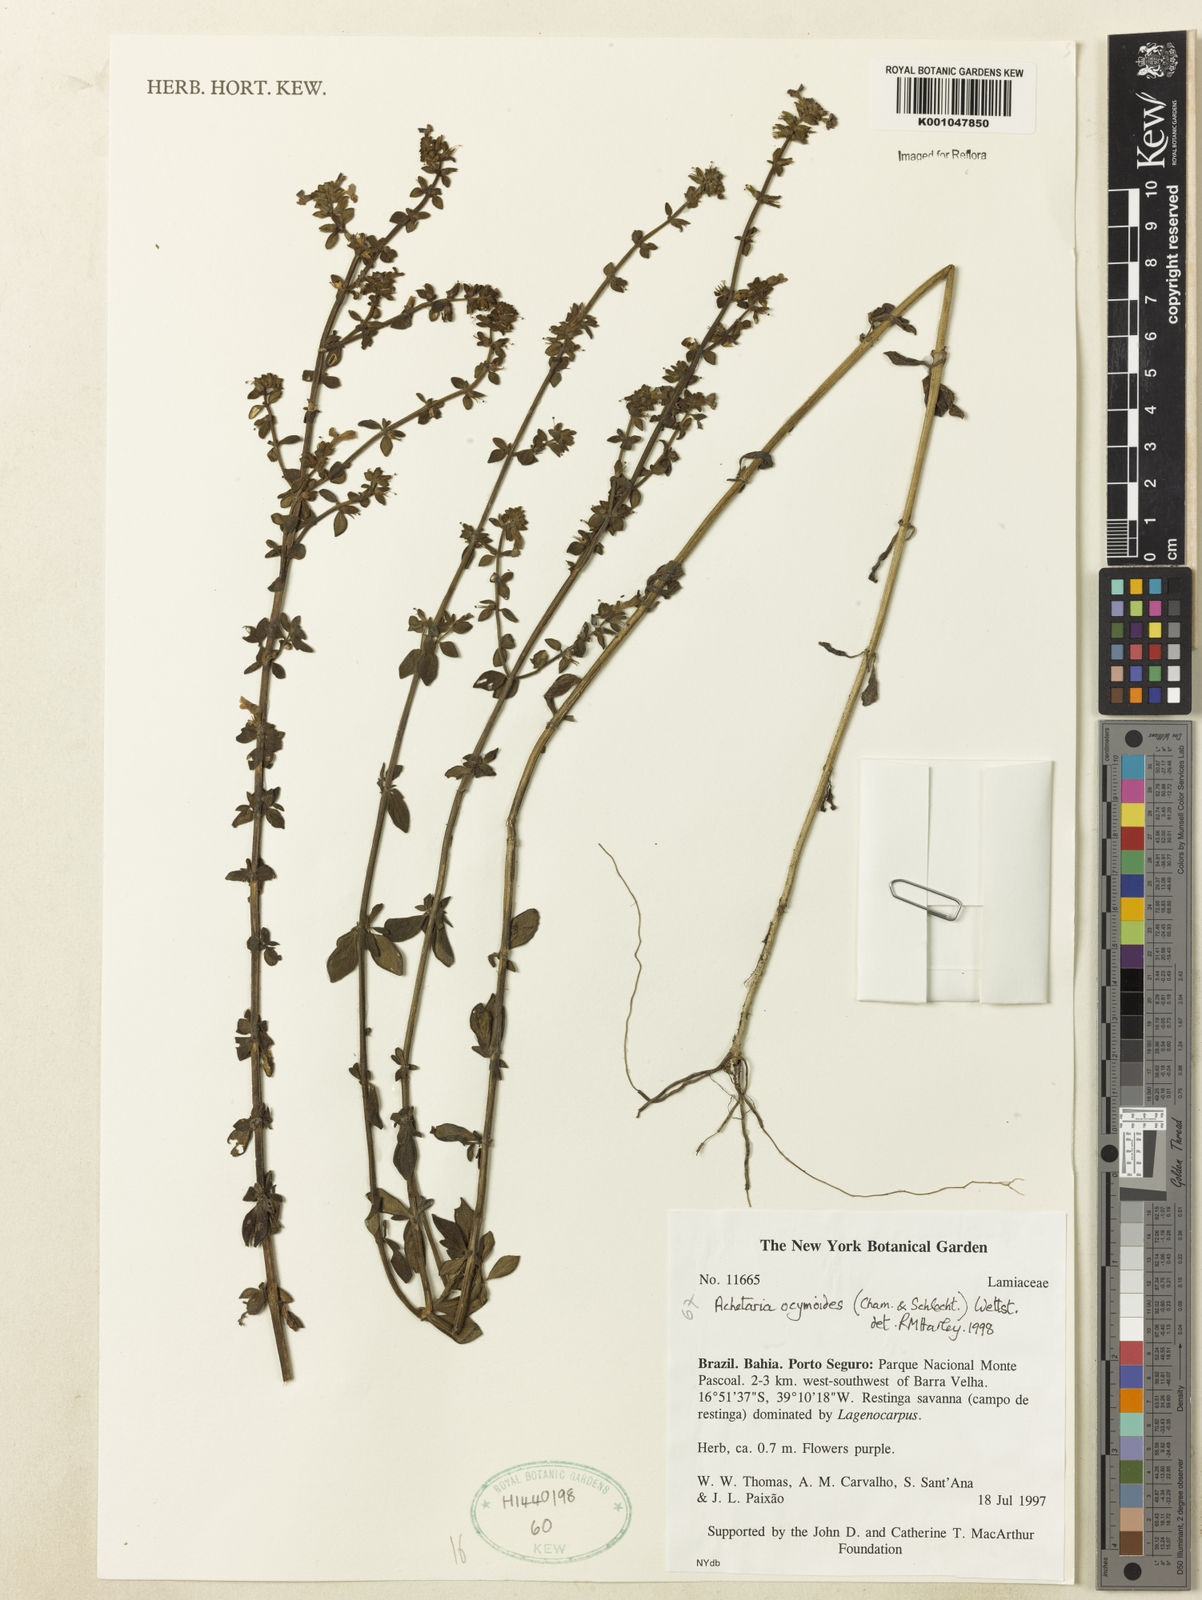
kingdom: Plantae
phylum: Tracheophyta
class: Magnoliopsida
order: Lamiales
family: Plantaginaceae
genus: Matourea
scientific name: Matourea ocymoides
